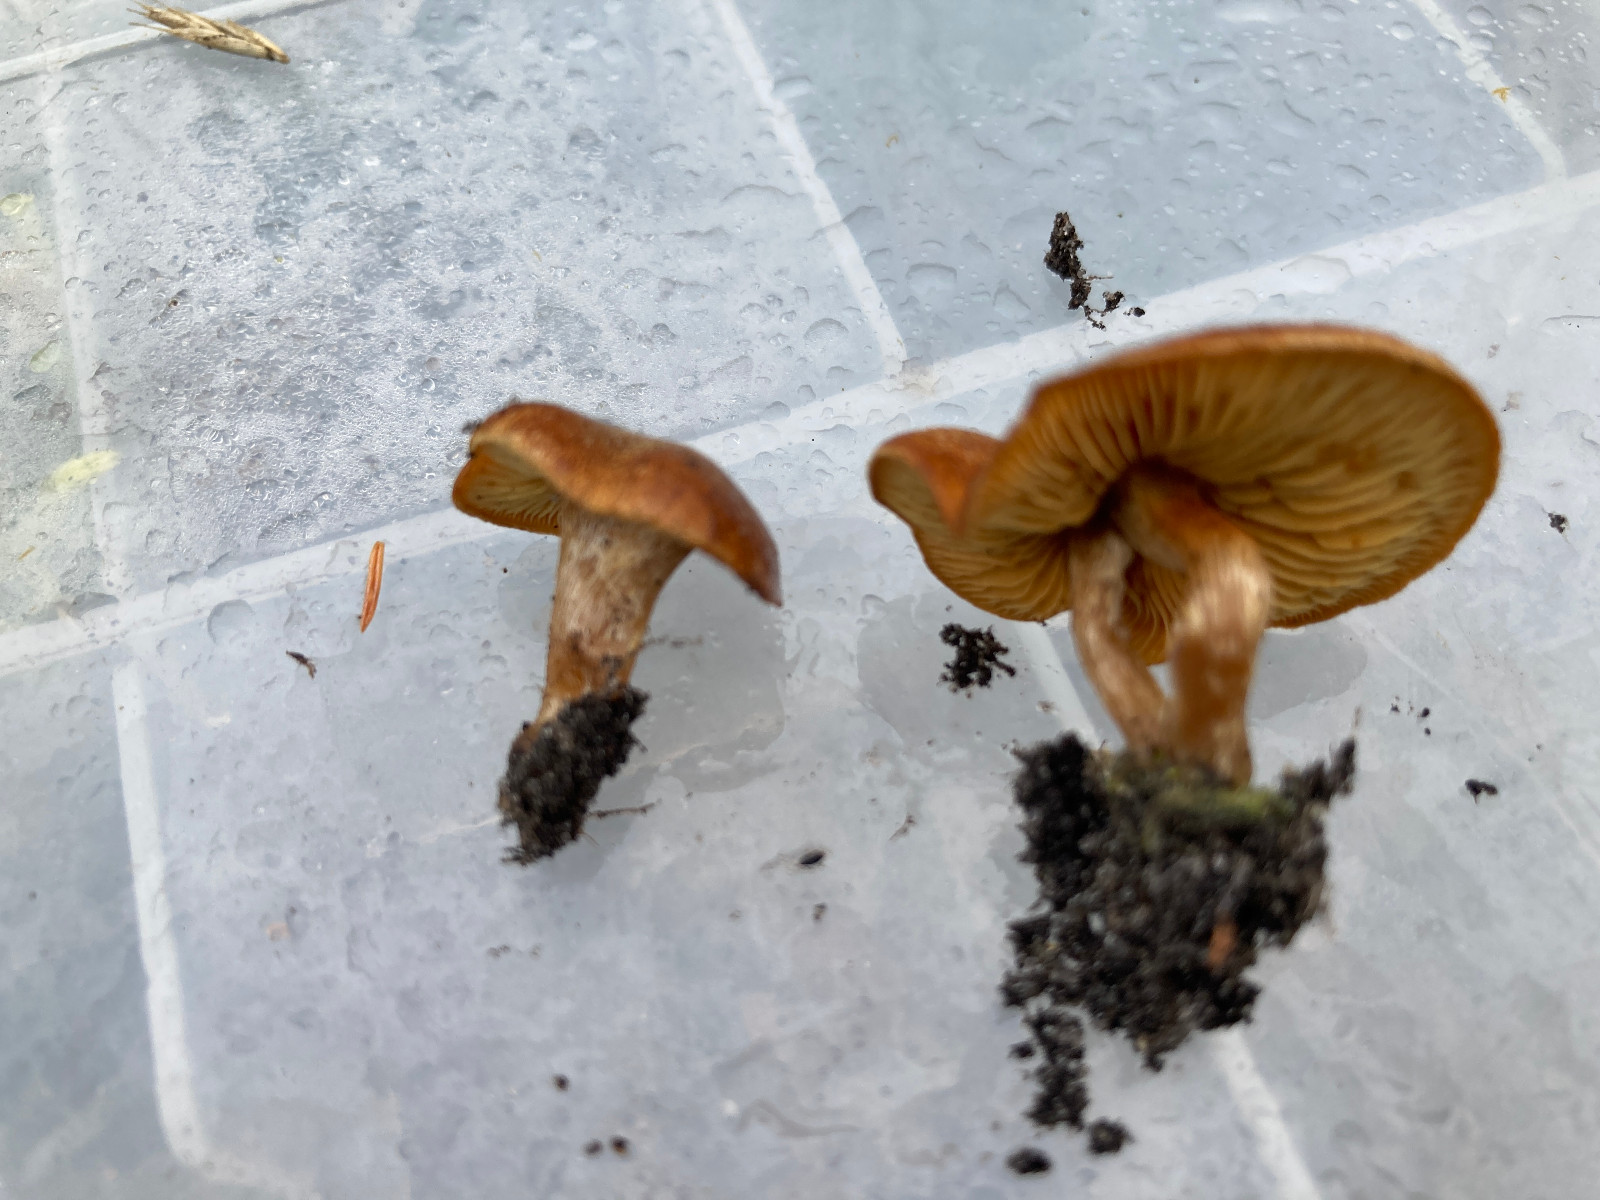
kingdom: Fungi
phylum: Basidiomycota
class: Agaricomycetes
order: Agaricales
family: Hymenogastraceae
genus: Gymnopilus
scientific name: Gymnopilus
